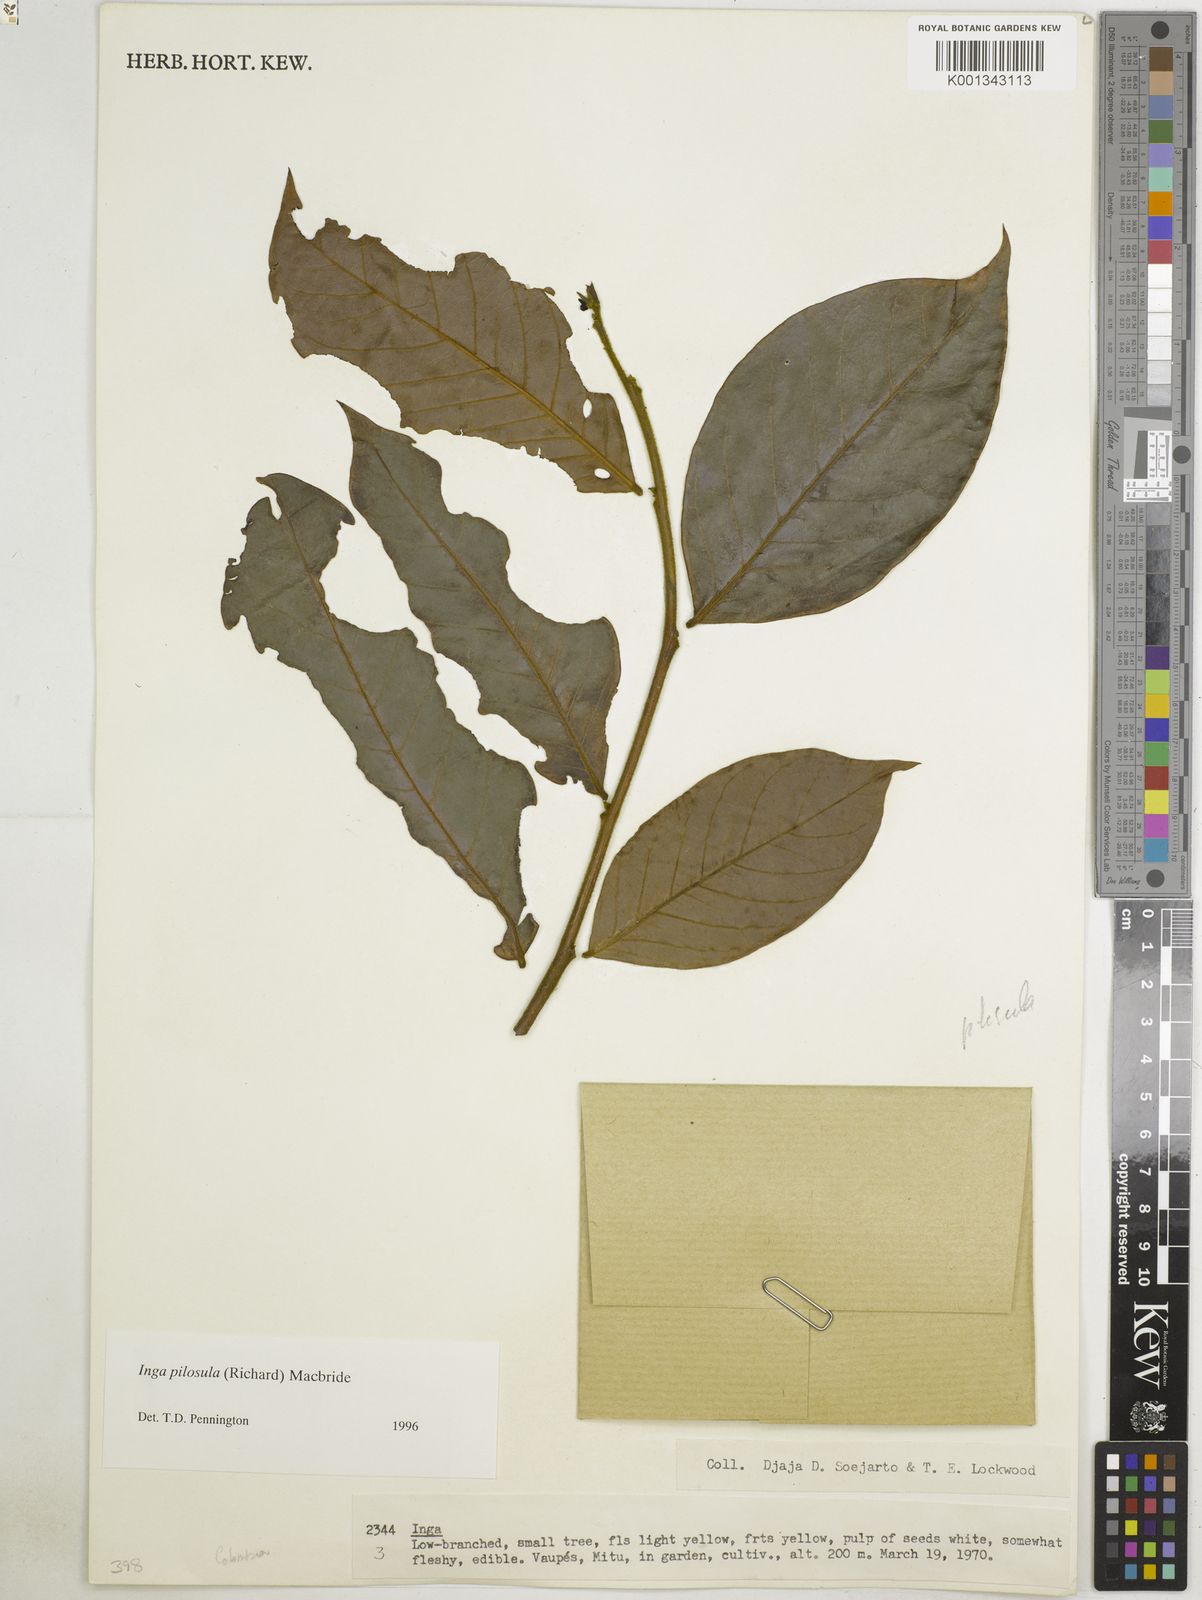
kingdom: Plantae
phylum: Tracheophyta
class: Magnoliopsida
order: Fabales
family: Fabaceae
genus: Inga
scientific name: Inga pilosula
